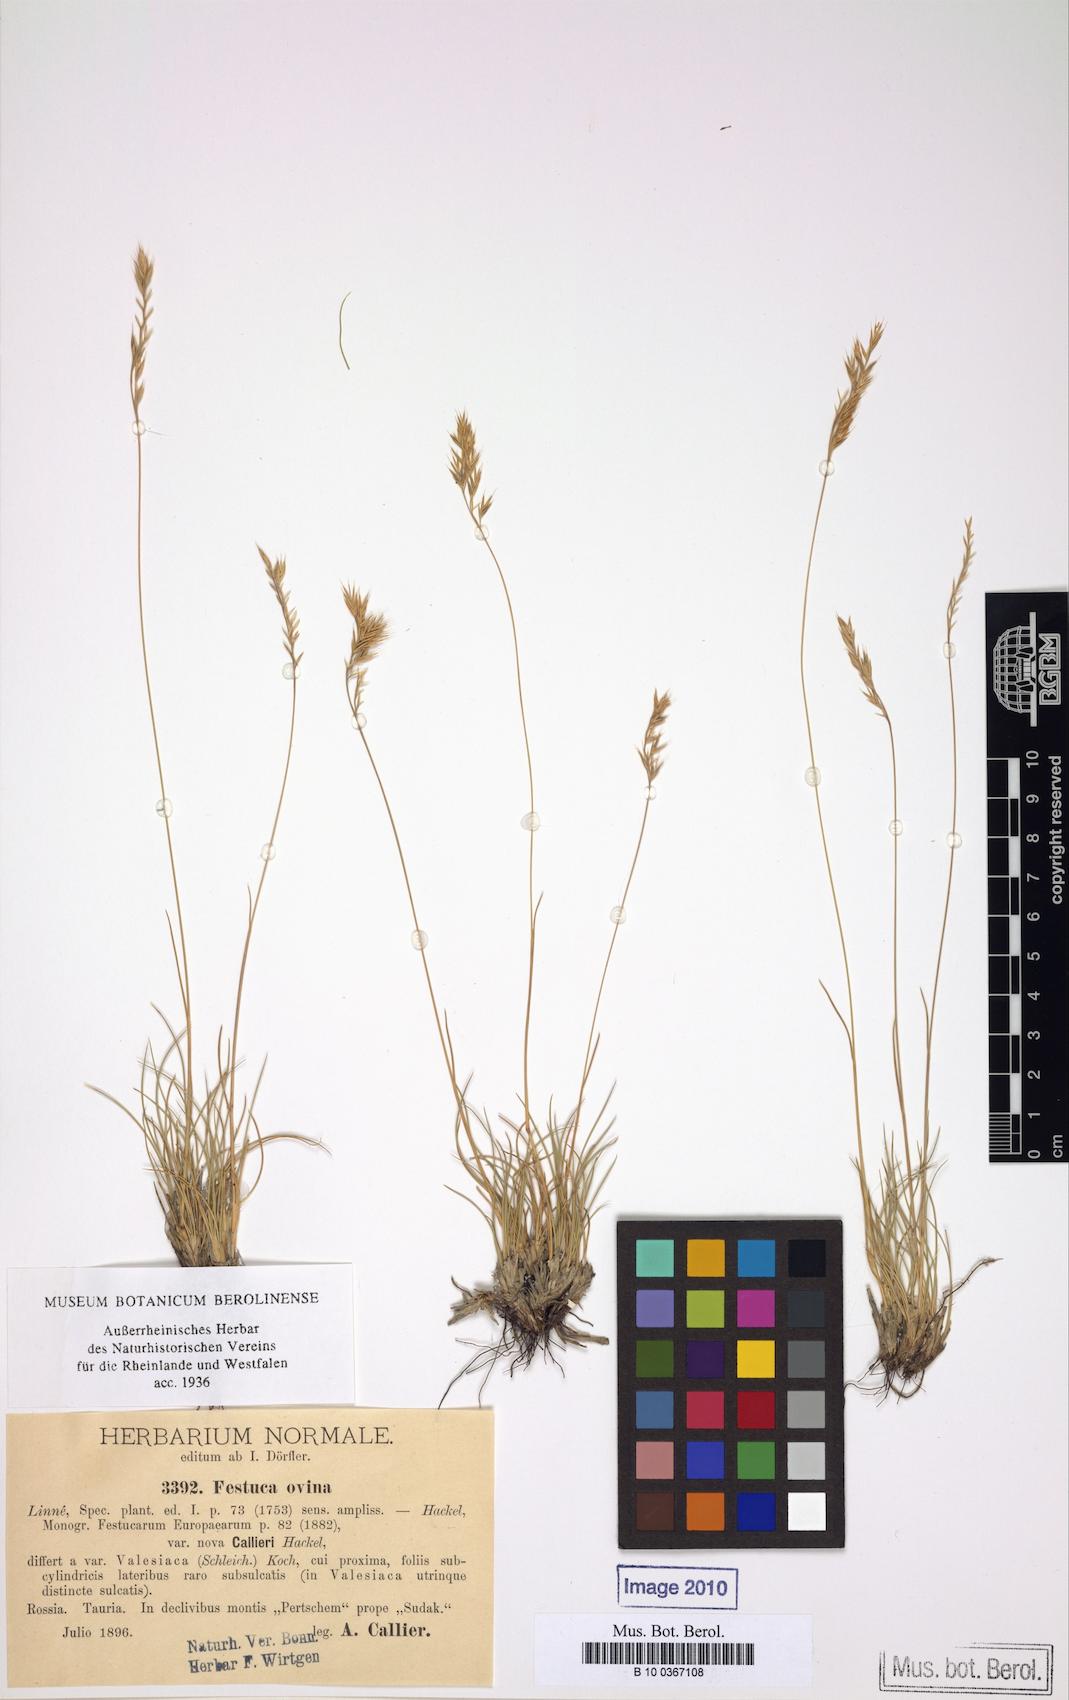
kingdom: Plantae
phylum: Tracheophyta
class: Liliopsida
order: Poales
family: Poaceae
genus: Festuca
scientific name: Festuca callieri
